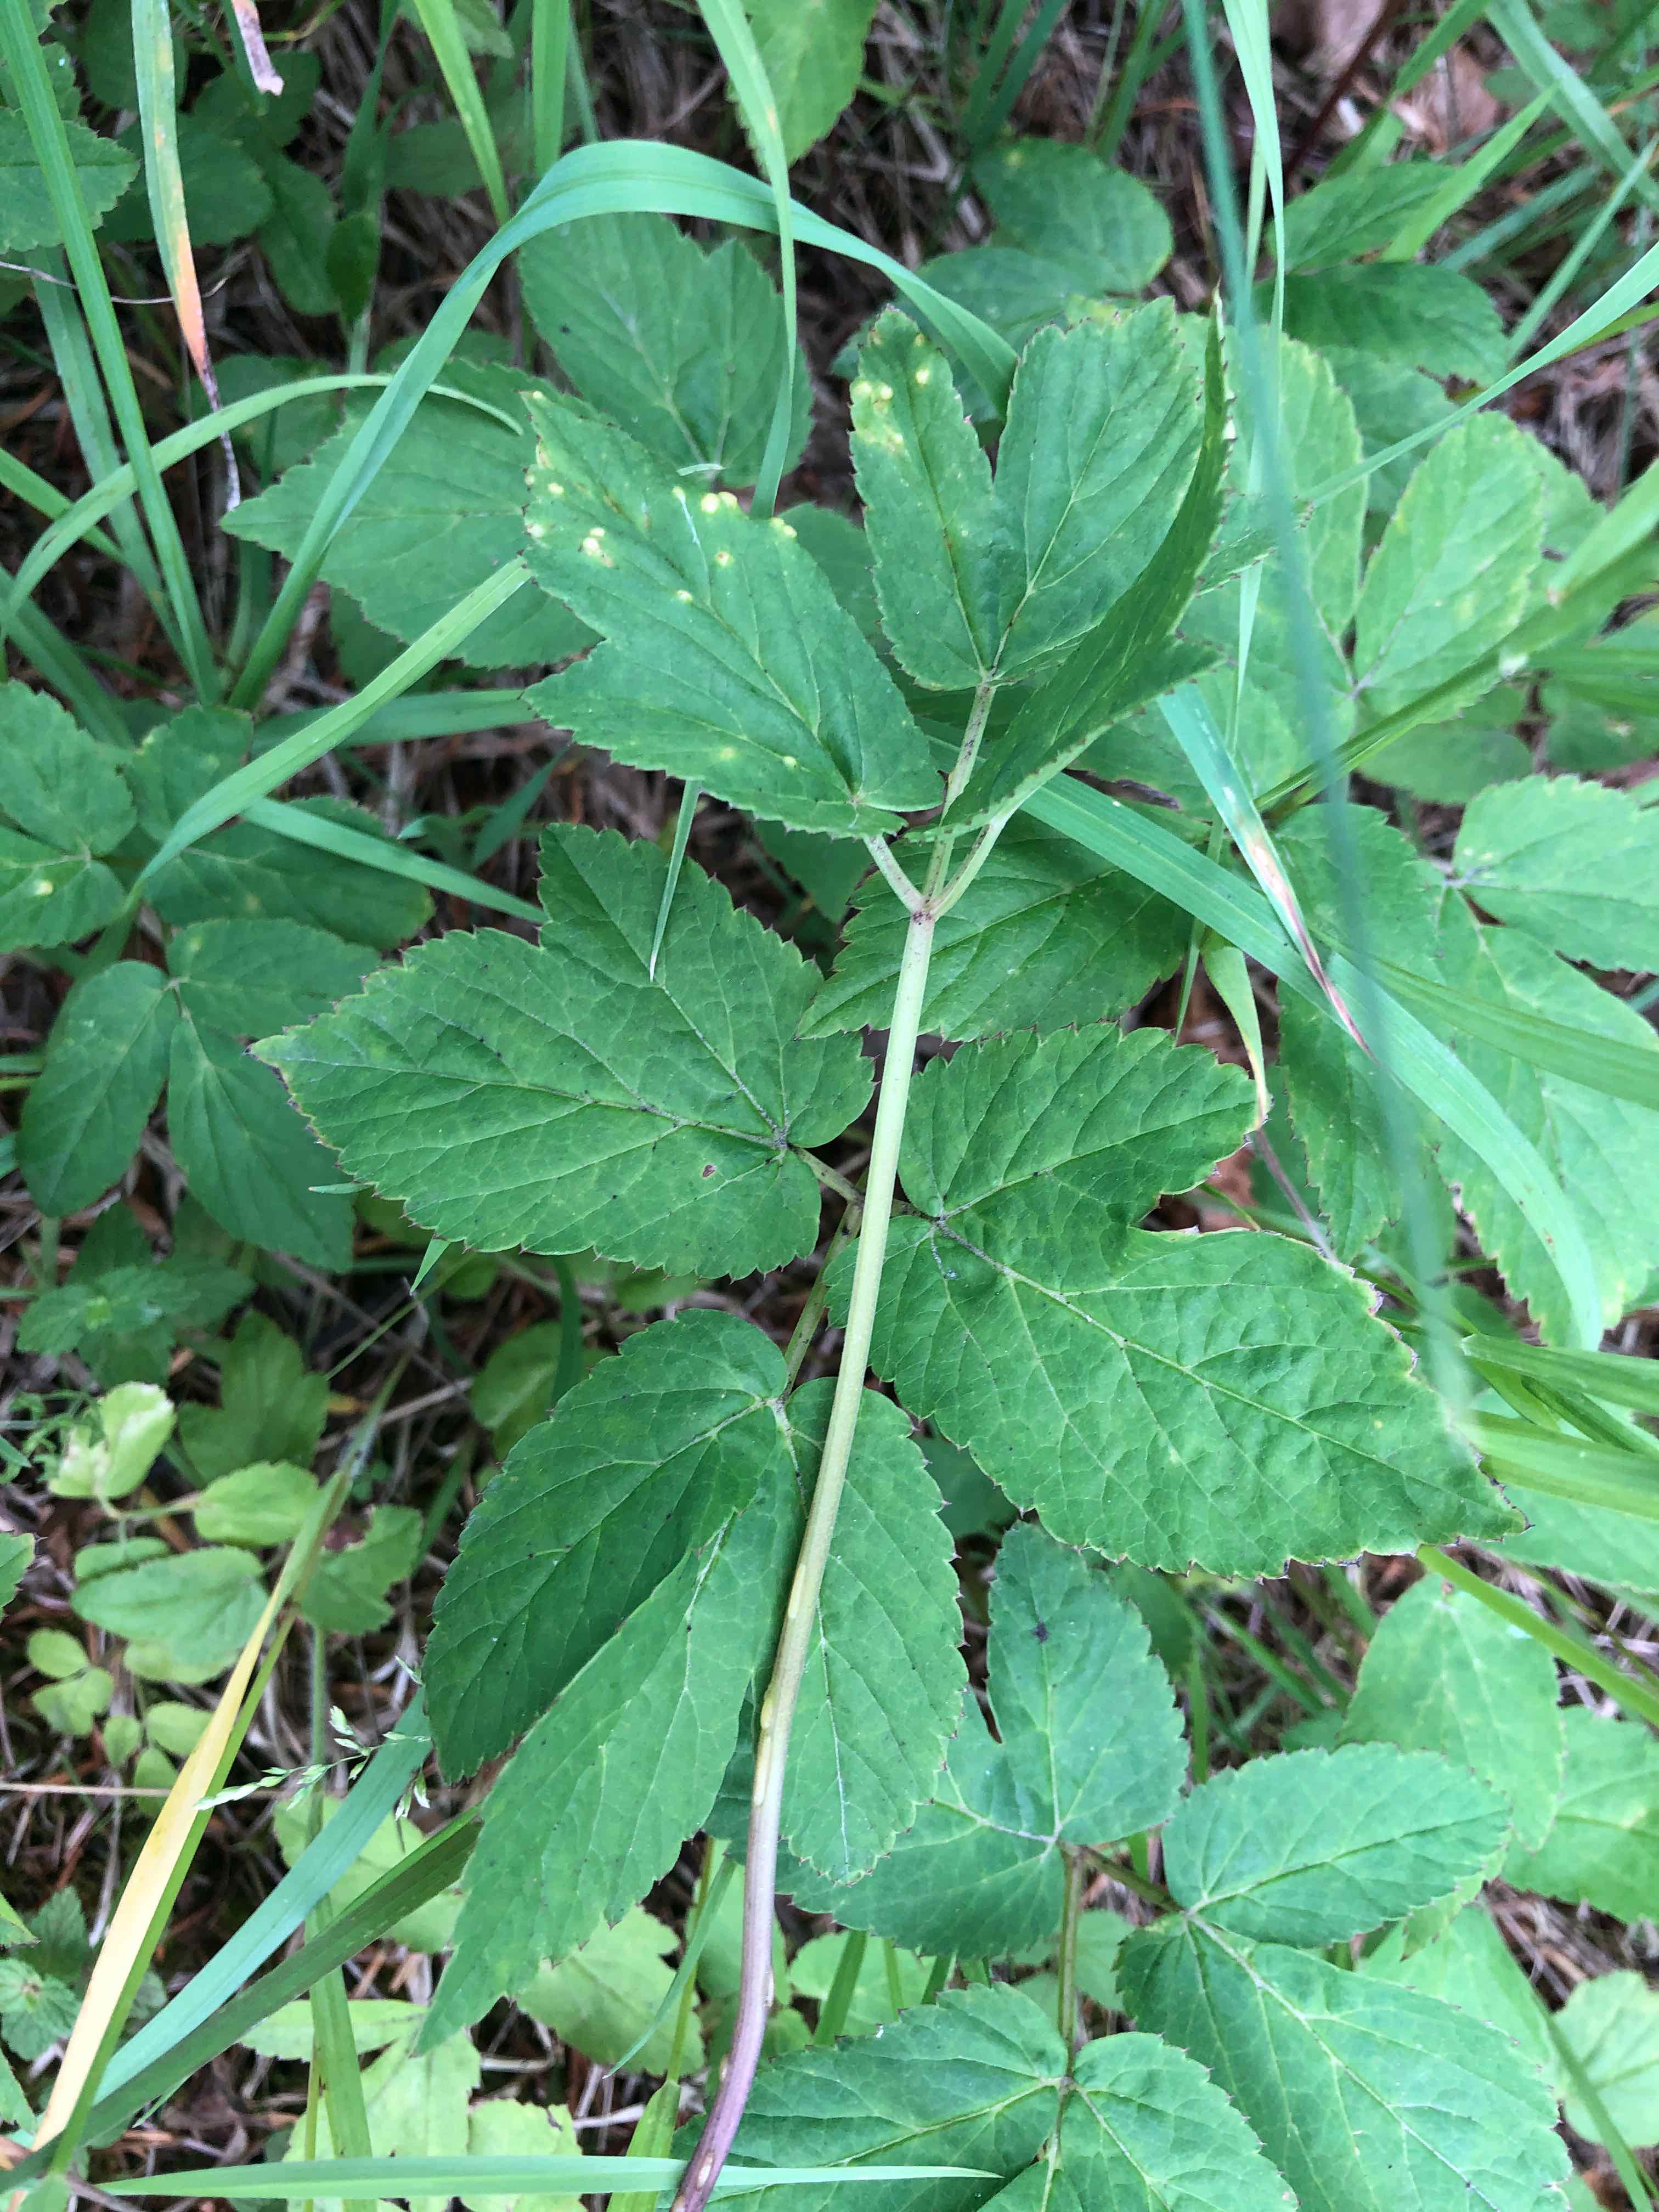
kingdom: Fungi
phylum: Ascomycota
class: Taphrinomycetes
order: Taphrinales
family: Taphrinaceae
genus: Protomyces
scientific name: Protomyces macrosporus
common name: skvalderkål-vablesæk
